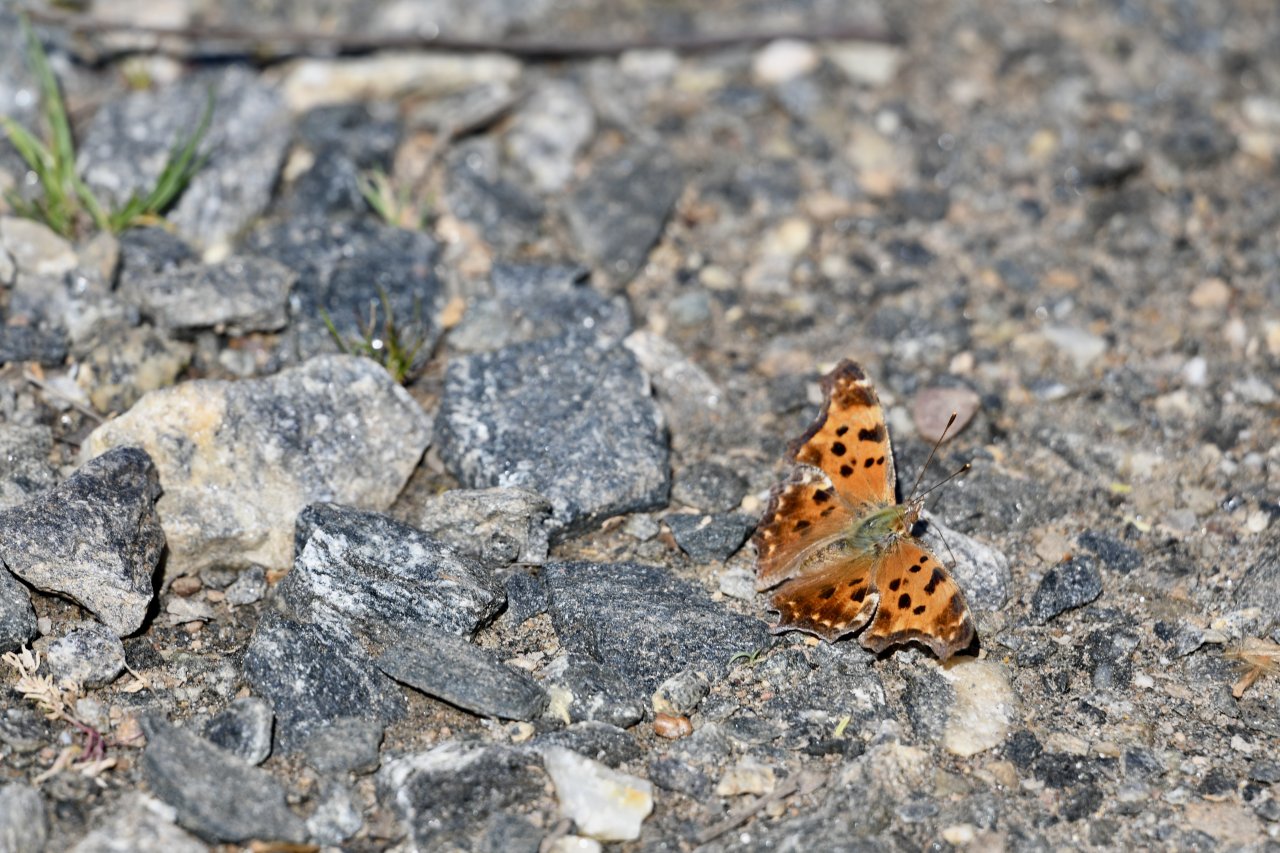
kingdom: Animalia
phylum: Arthropoda
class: Insecta
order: Lepidoptera
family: Nymphalidae
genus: Polygonia
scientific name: Polygonia comma
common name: Eastern Comma
